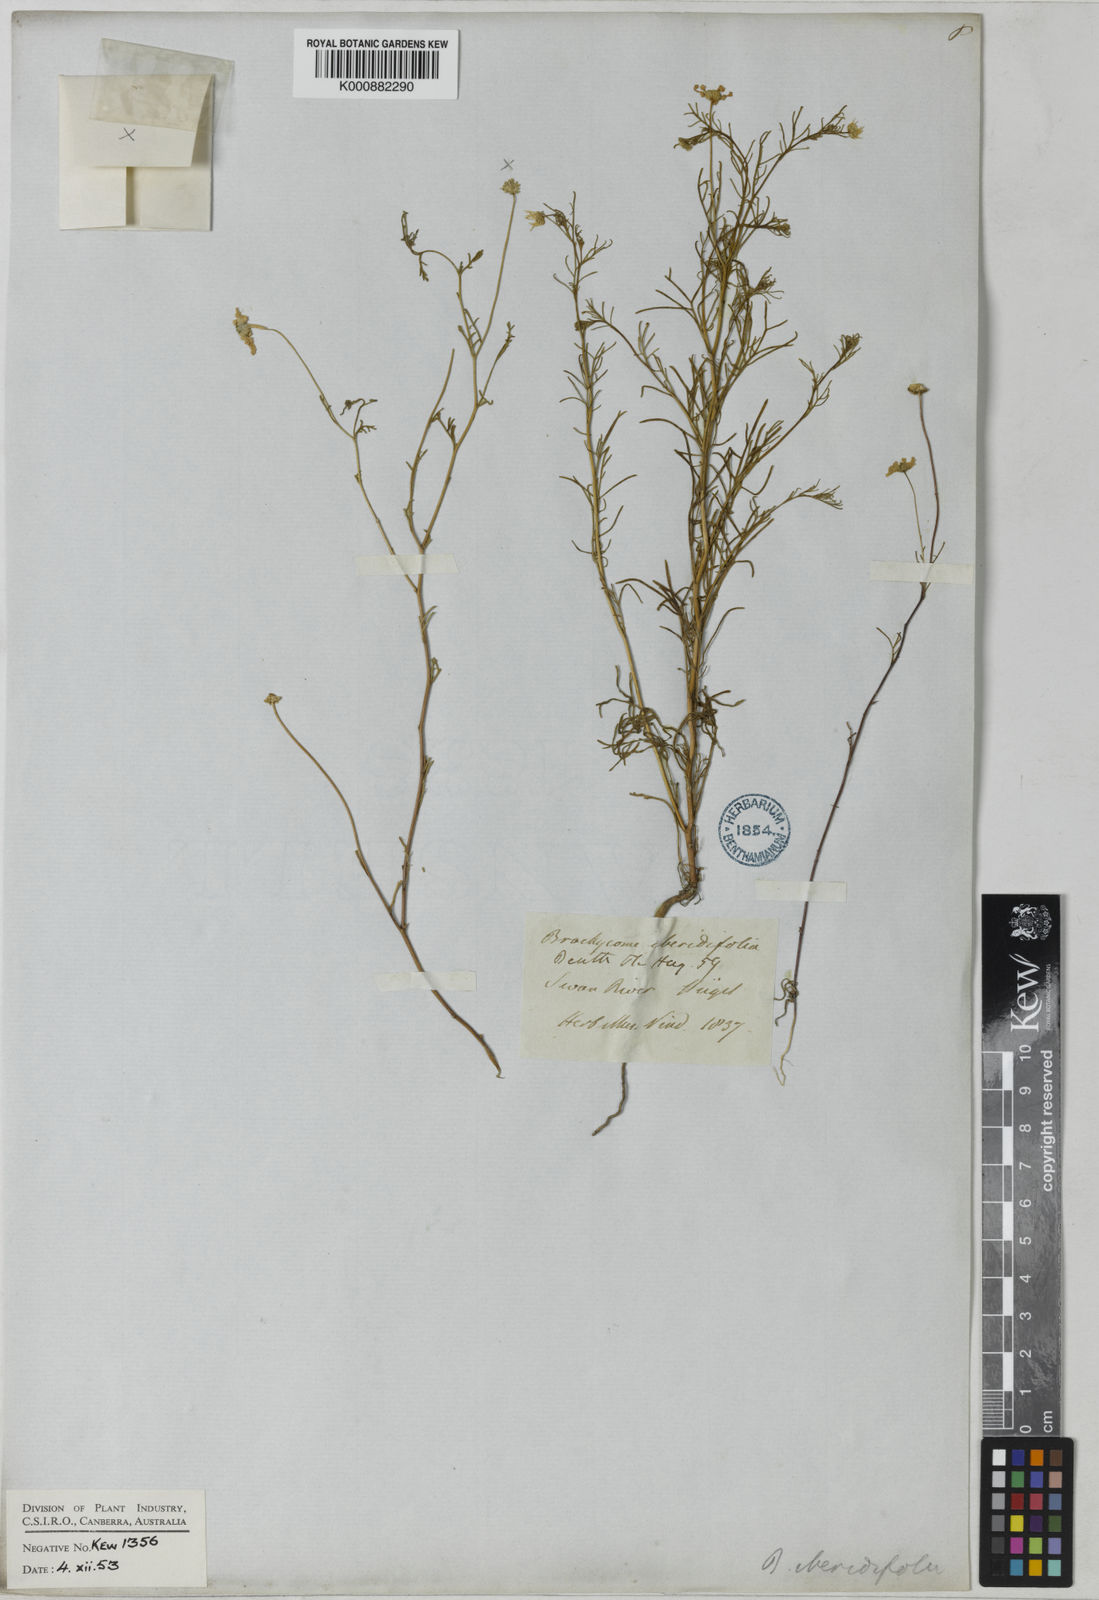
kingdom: Plantae
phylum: Tracheophyta
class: Magnoliopsida
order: Asterales
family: Asteraceae
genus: Brachyscome
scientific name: Brachyscome iberidifolia
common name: Swan river daisy
